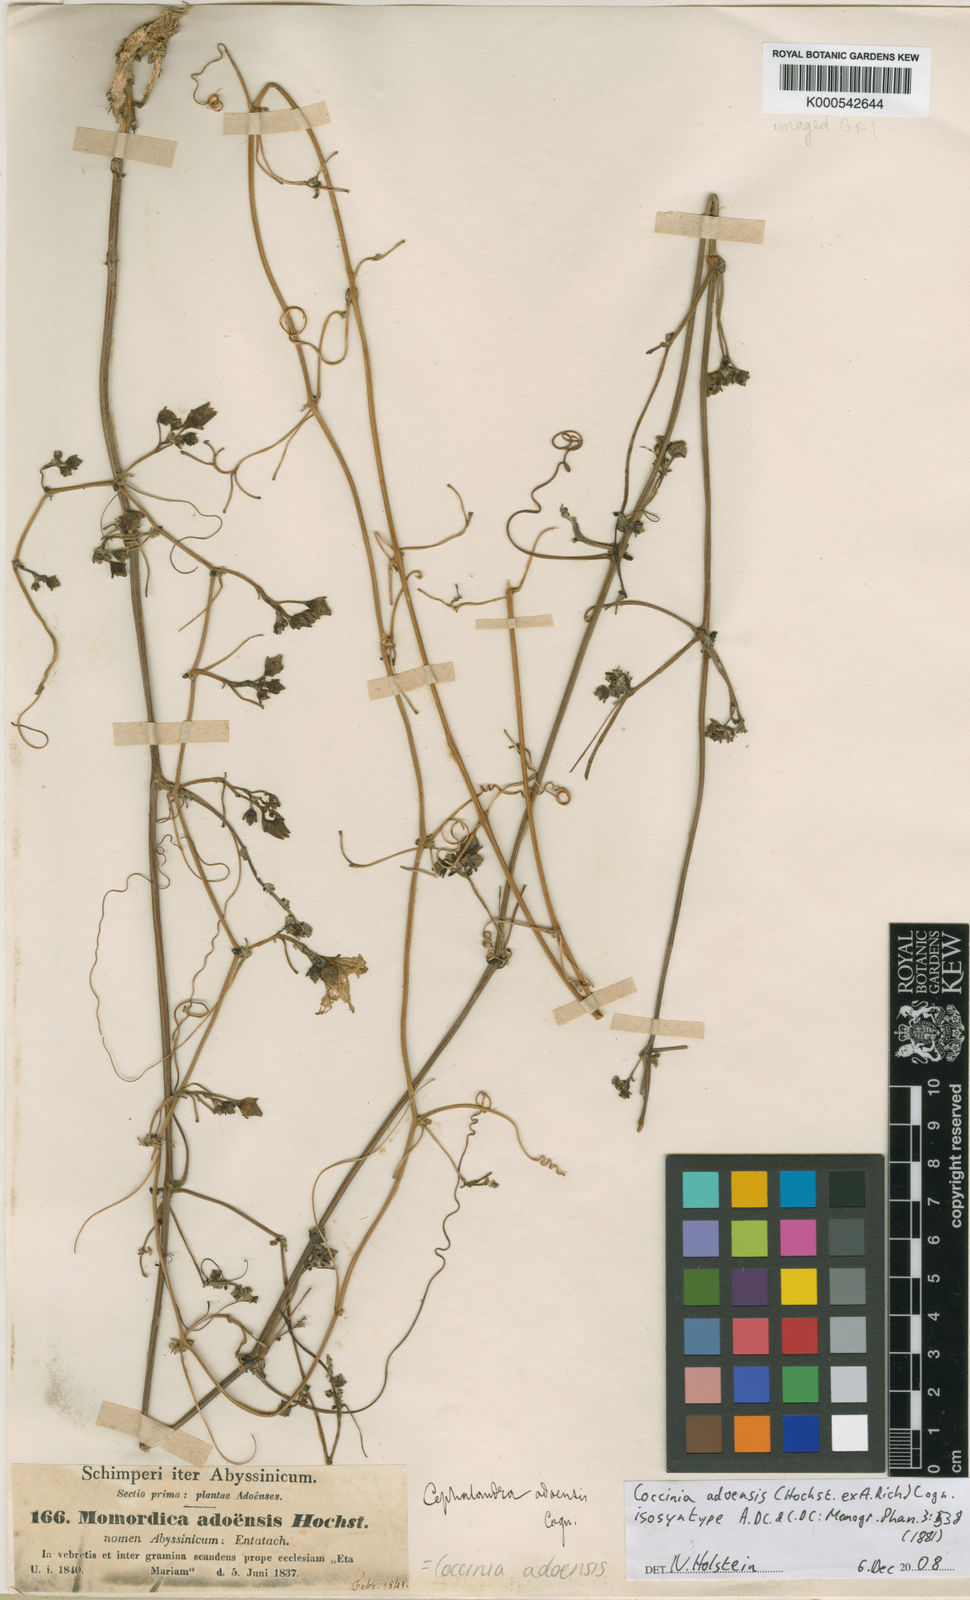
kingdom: Plantae
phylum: Tracheophyta
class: Magnoliopsida
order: Cucurbitales
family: Cucurbitaceae
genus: Coccinia
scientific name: Coccinia adoensis
